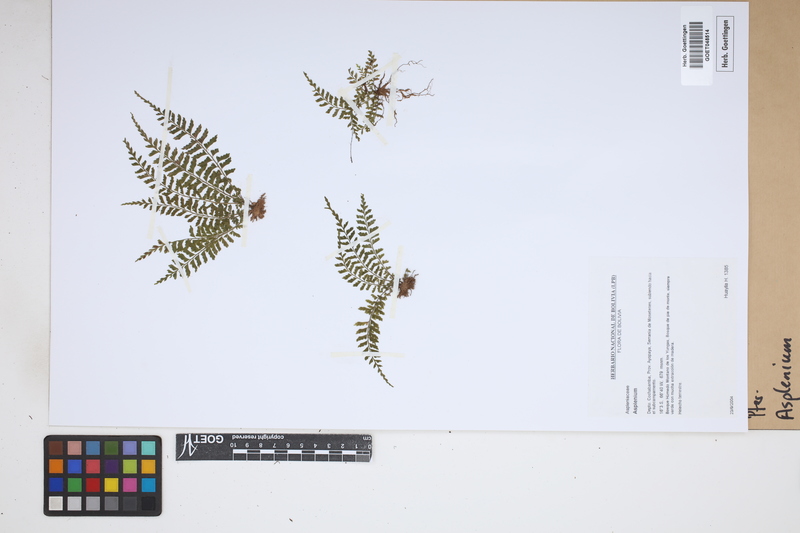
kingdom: Plantae
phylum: Tracheophyta
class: Polypodiopsida
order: Polypodiales
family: Aspleniaceae
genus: Asplenium
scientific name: Asplenium
